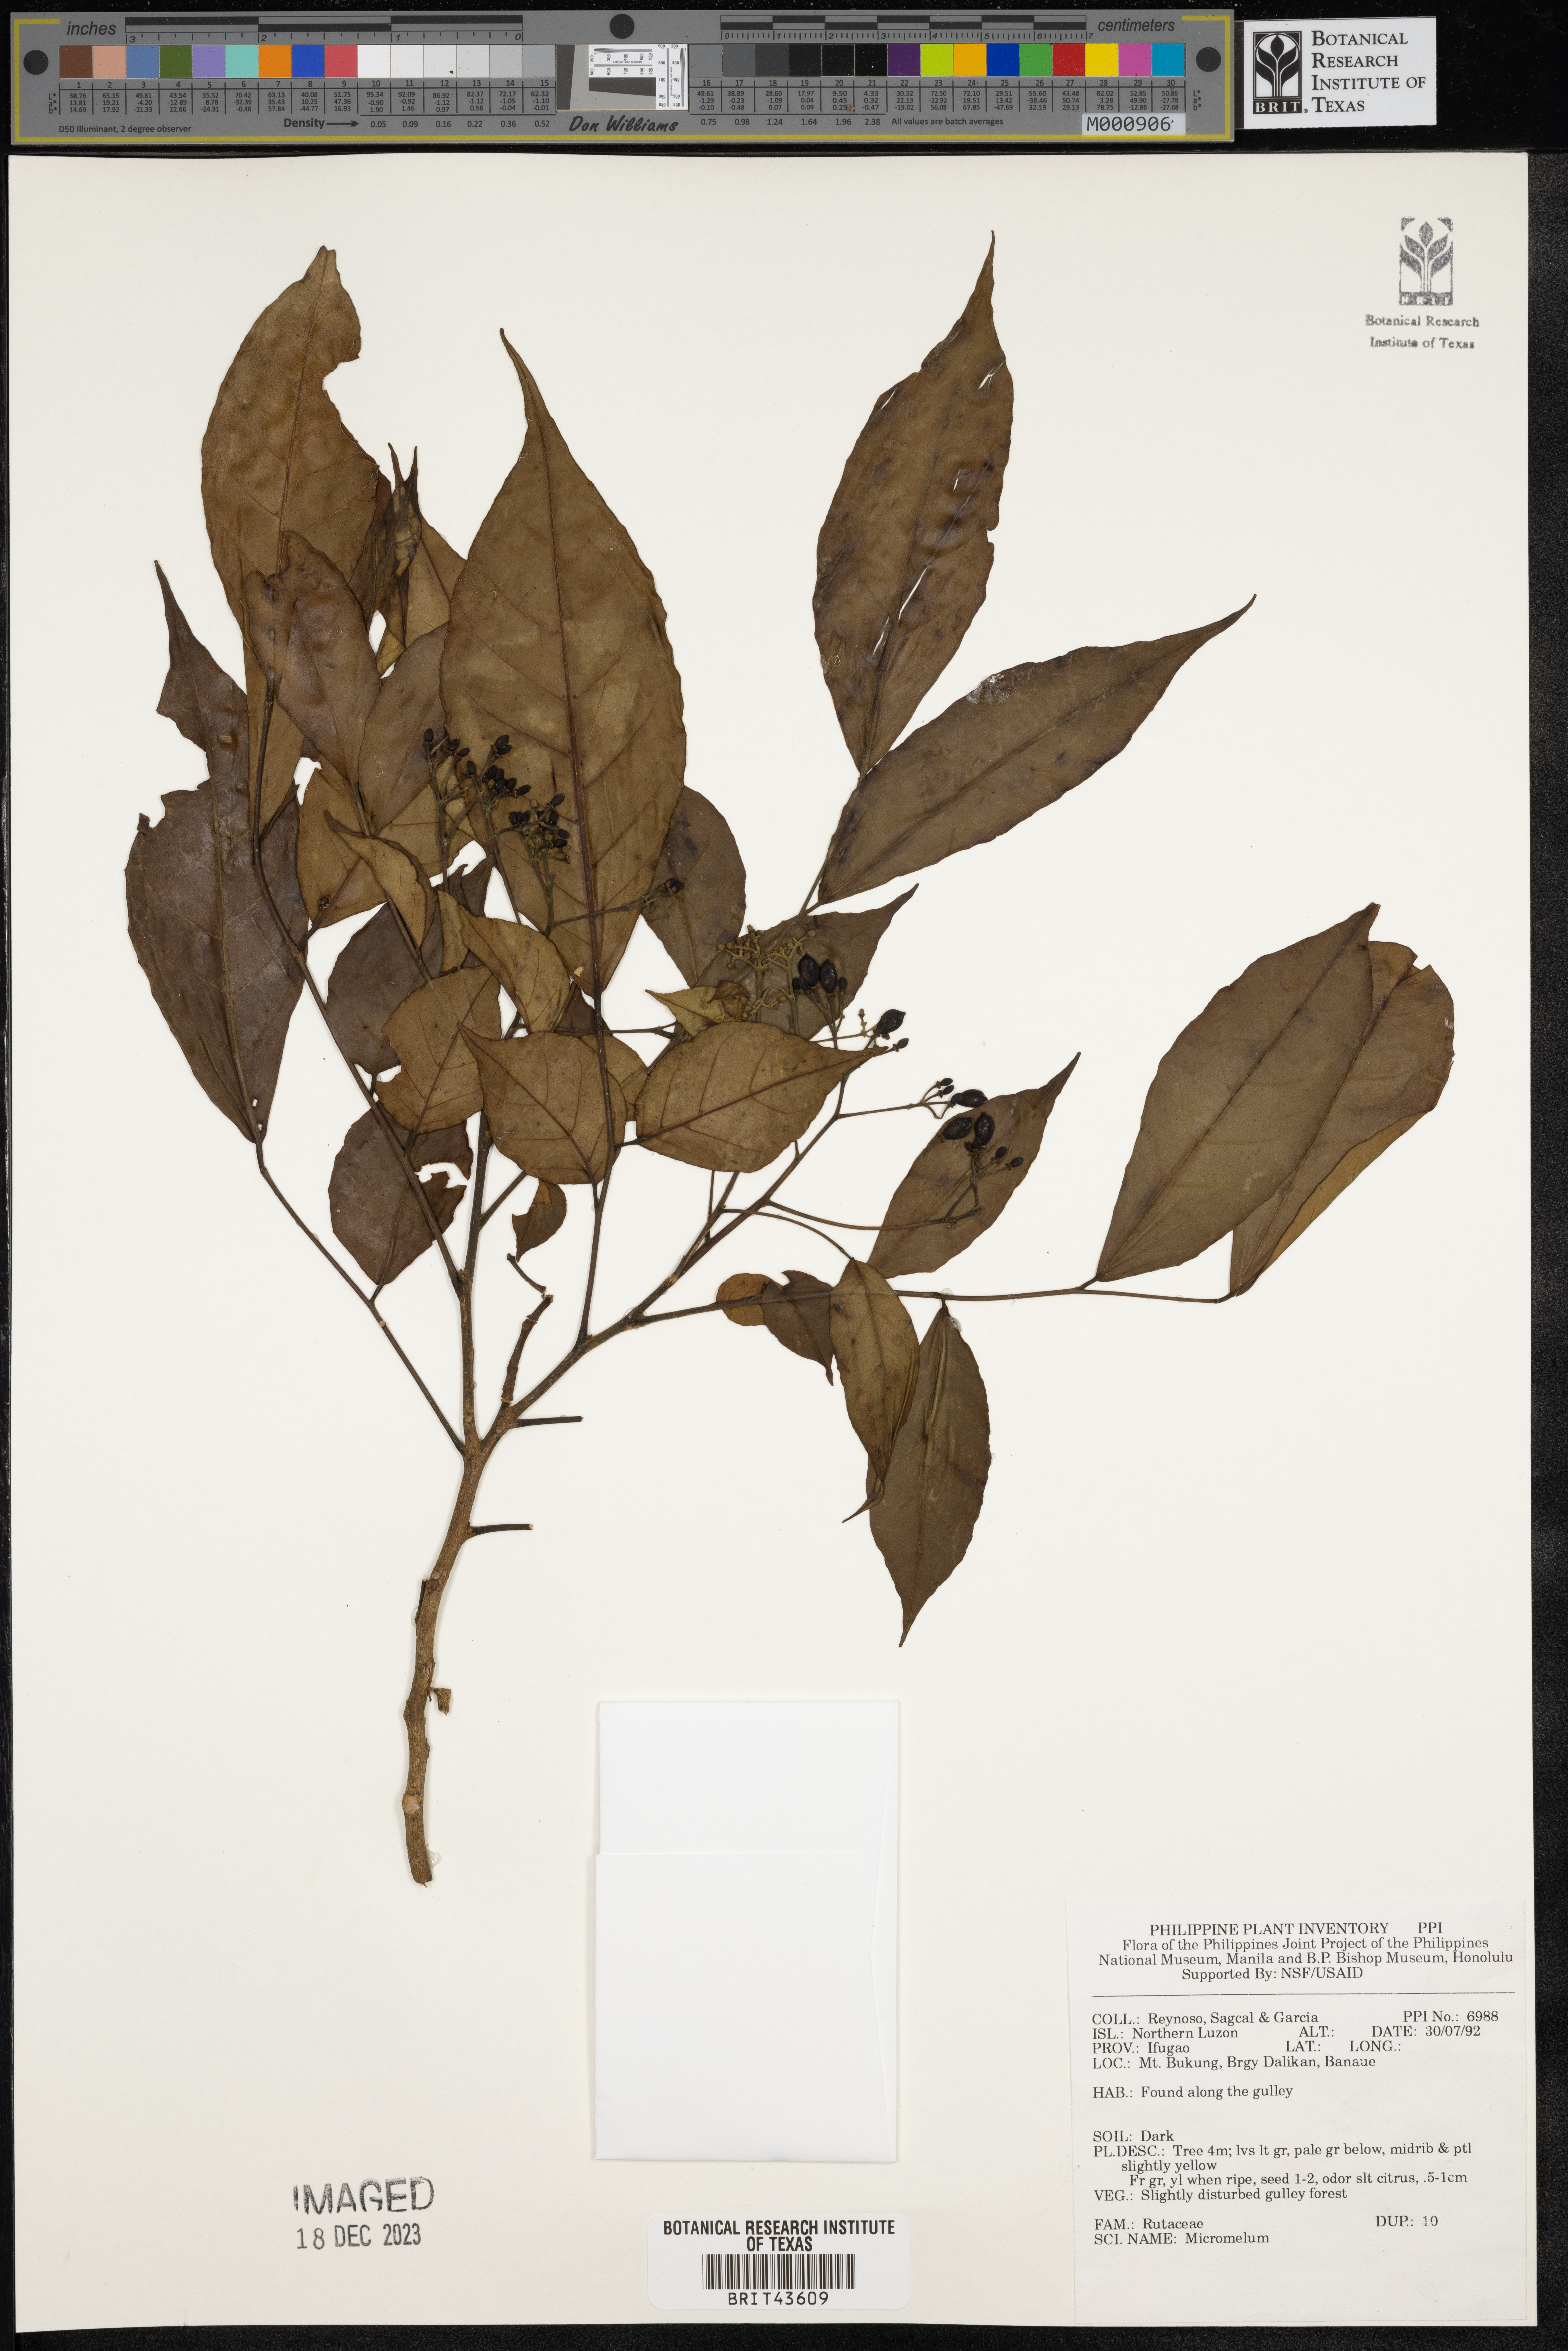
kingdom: Plantae
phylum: Tracheophyta
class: Magnoliopsida
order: Sapindales
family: Rutaceae
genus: Micromelum
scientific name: Micromelum
